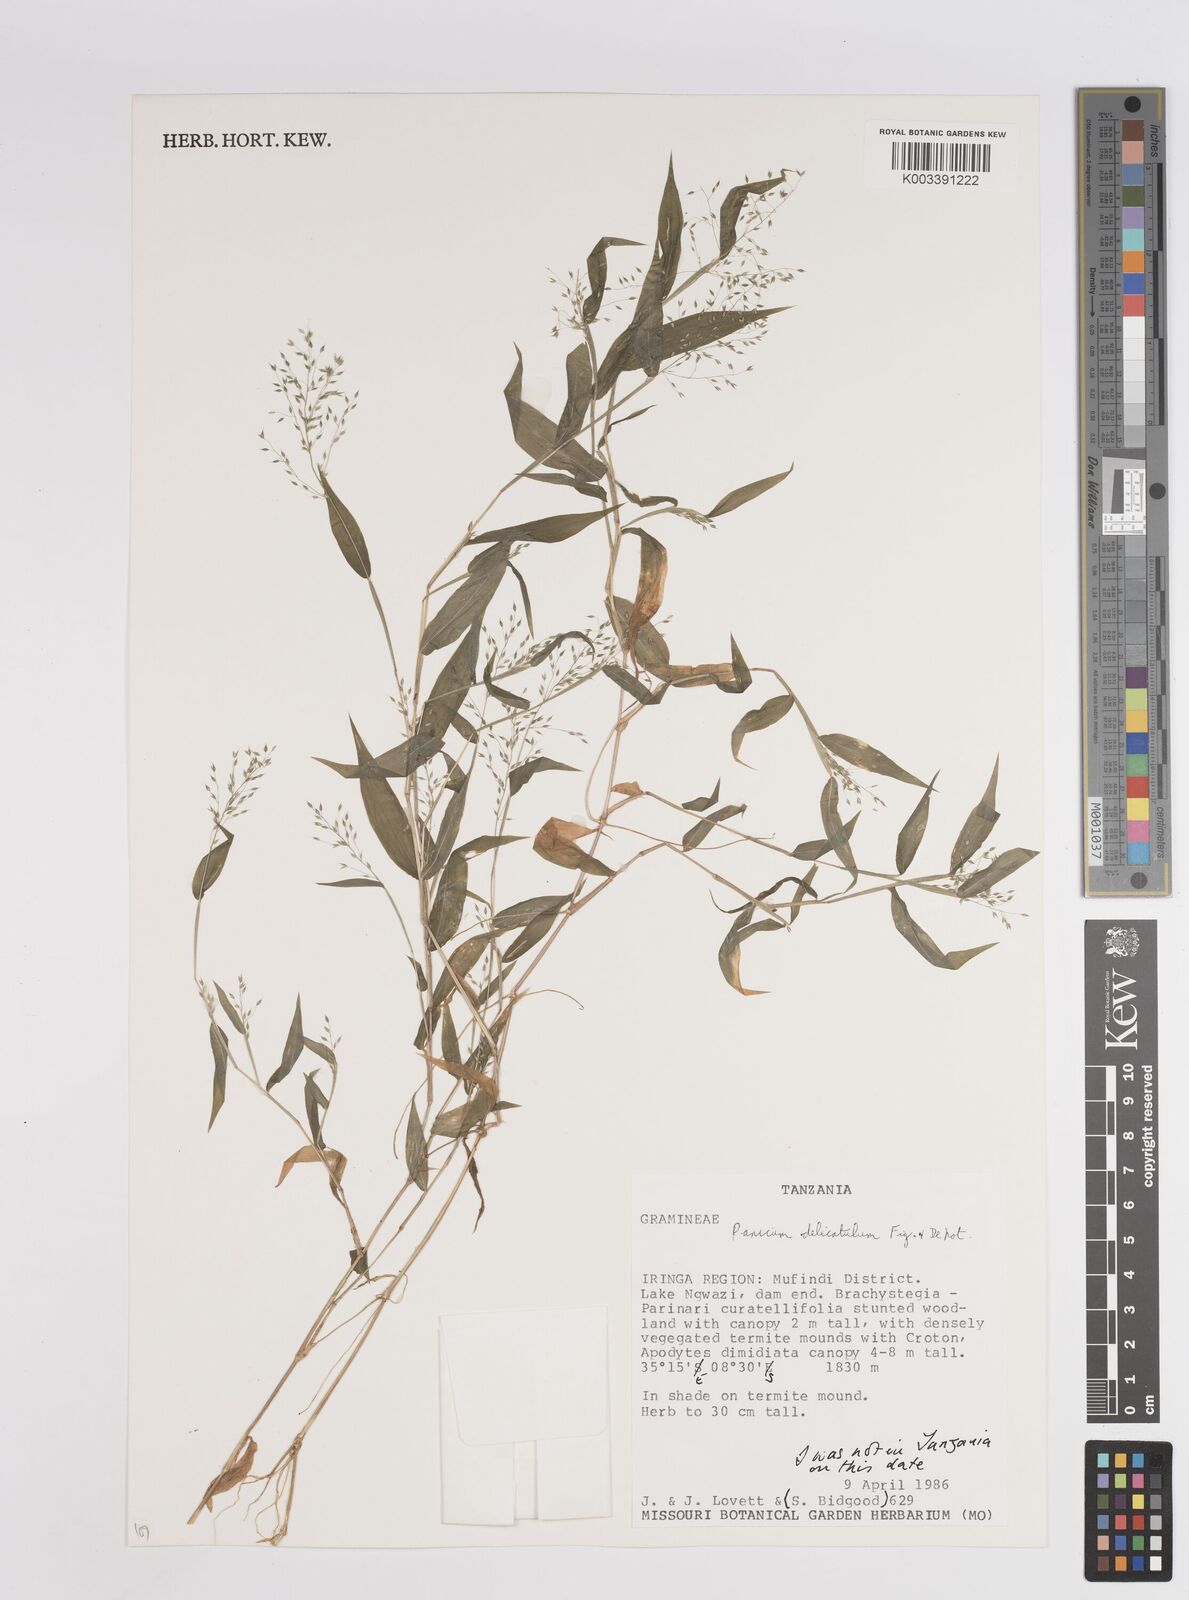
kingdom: Plantae
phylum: Tracheophyta
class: Liliopsida
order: Poales
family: Poaceae
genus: Panicum
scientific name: Panicum delicatulum
